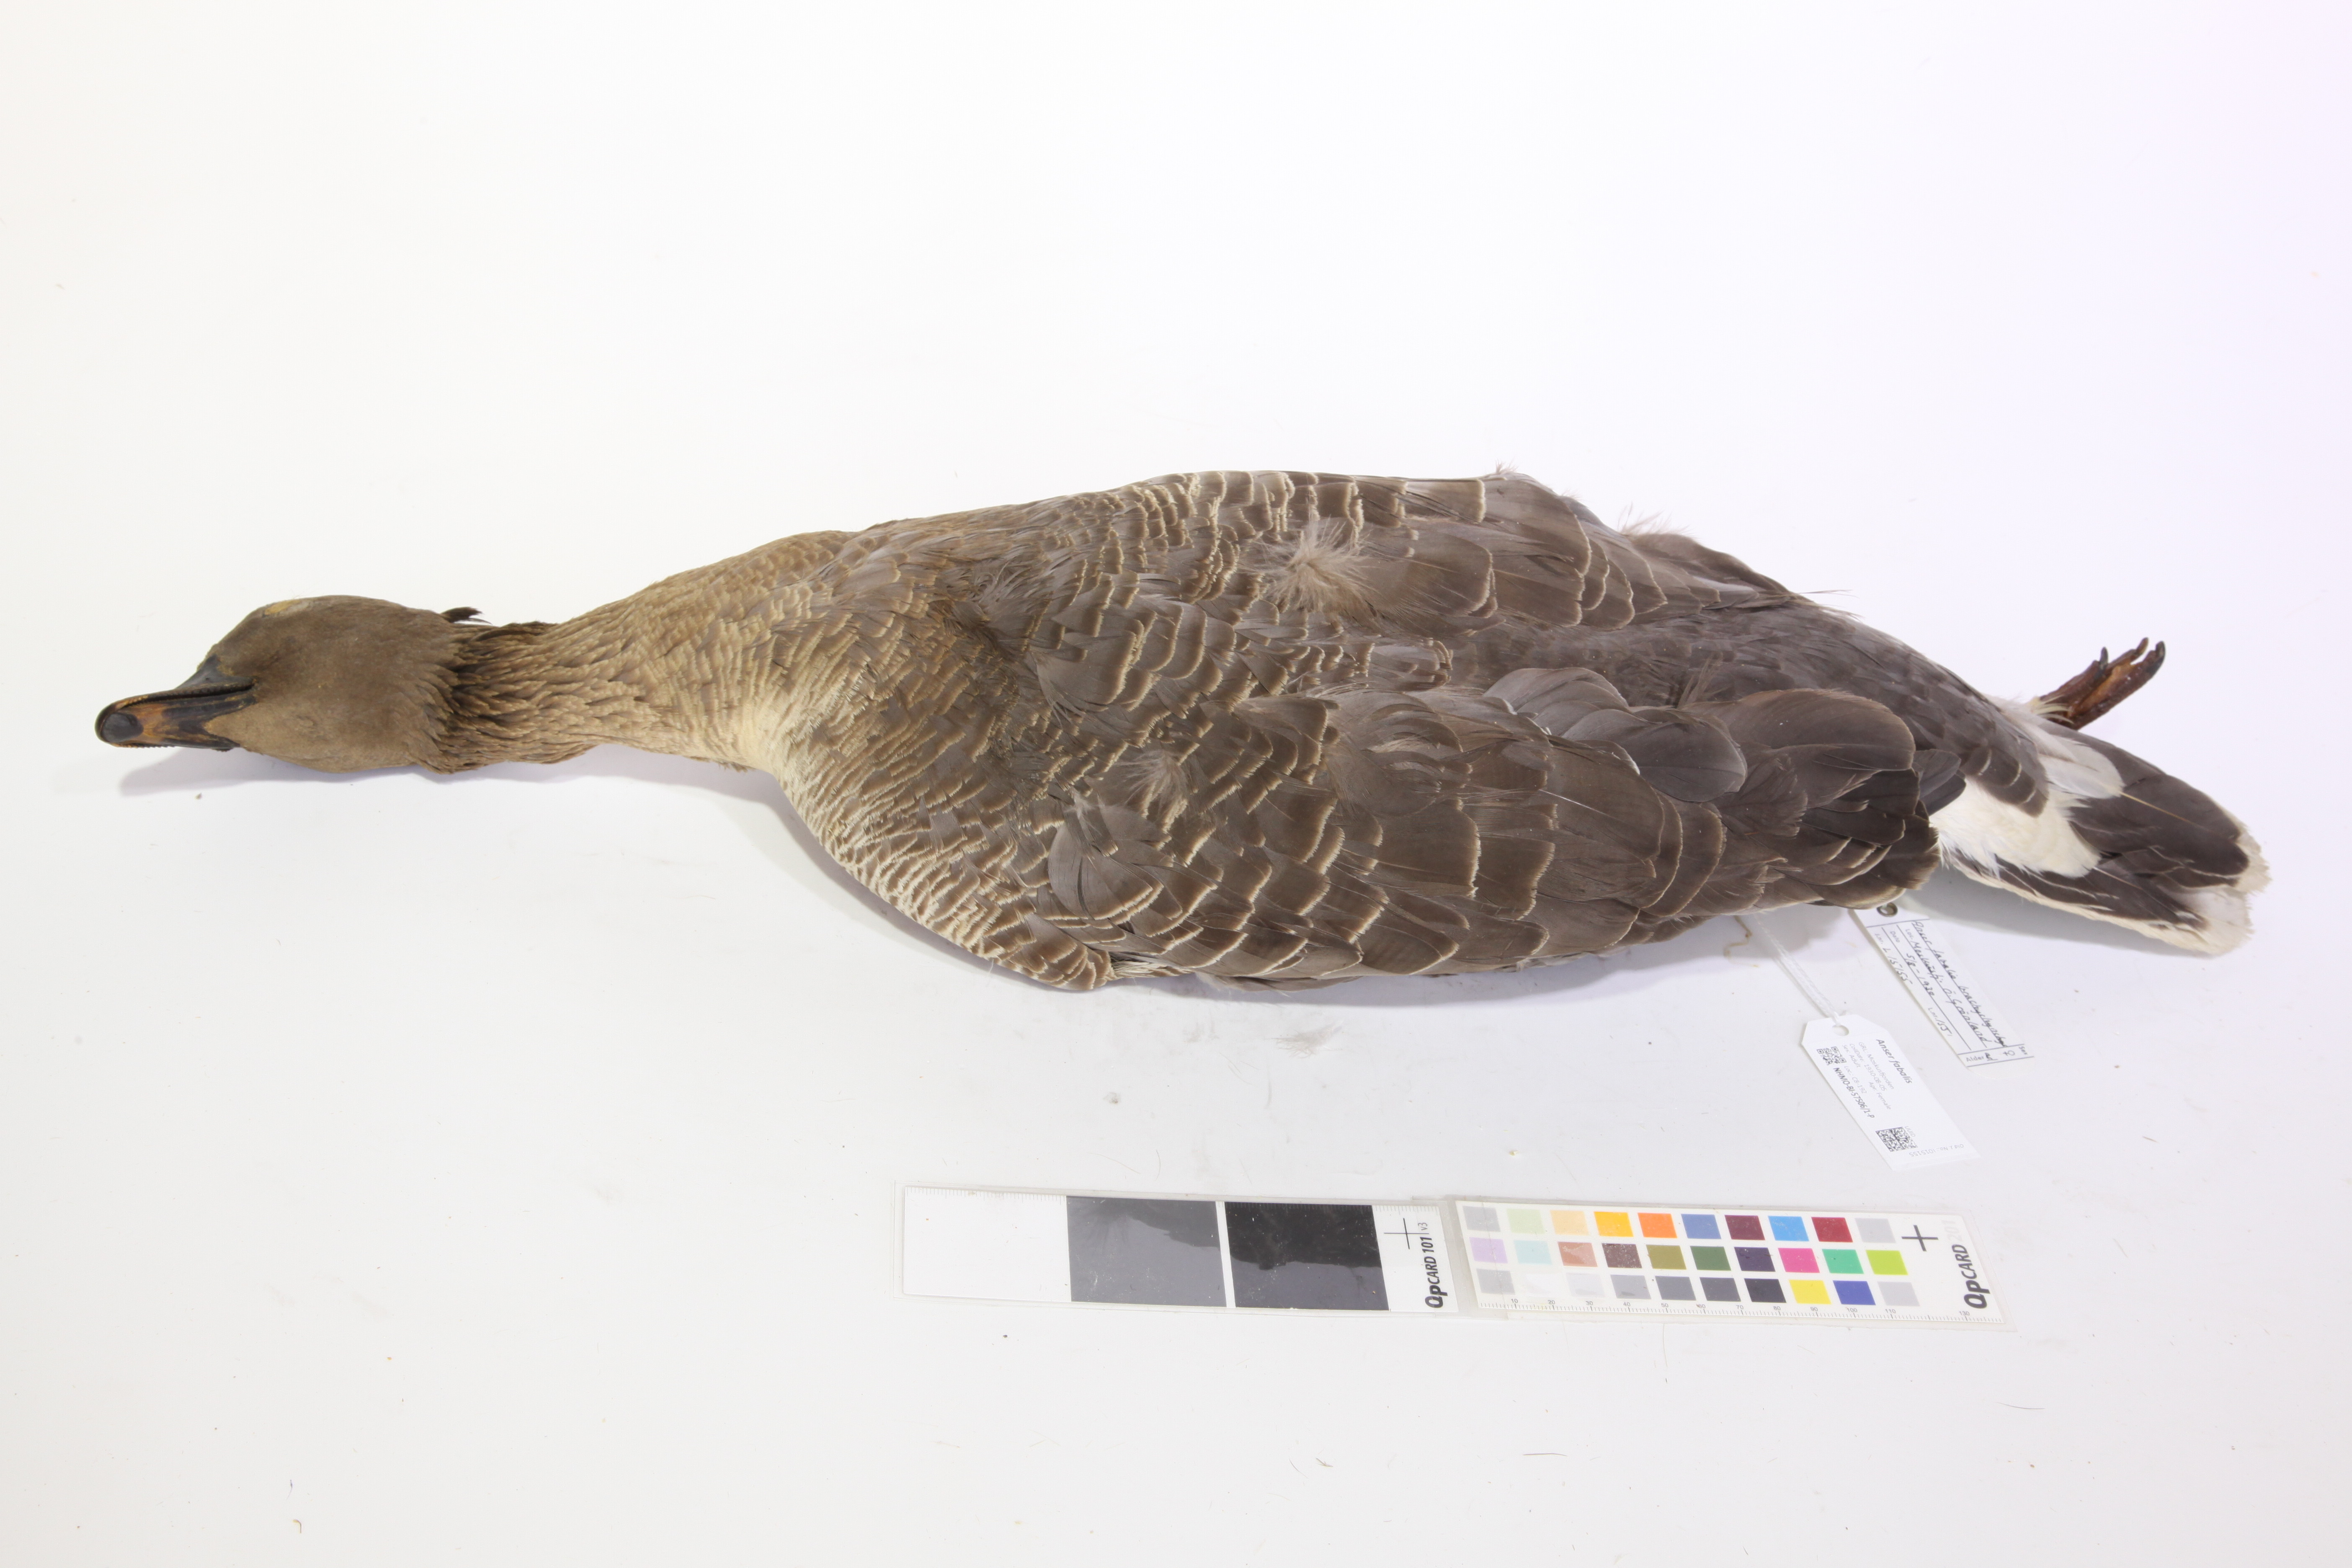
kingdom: Animalia
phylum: Chordata
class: Aves
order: Anseriformes
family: Anatidae
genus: Anser
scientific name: Anser brachyrhynchus
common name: Pink-footed goose
